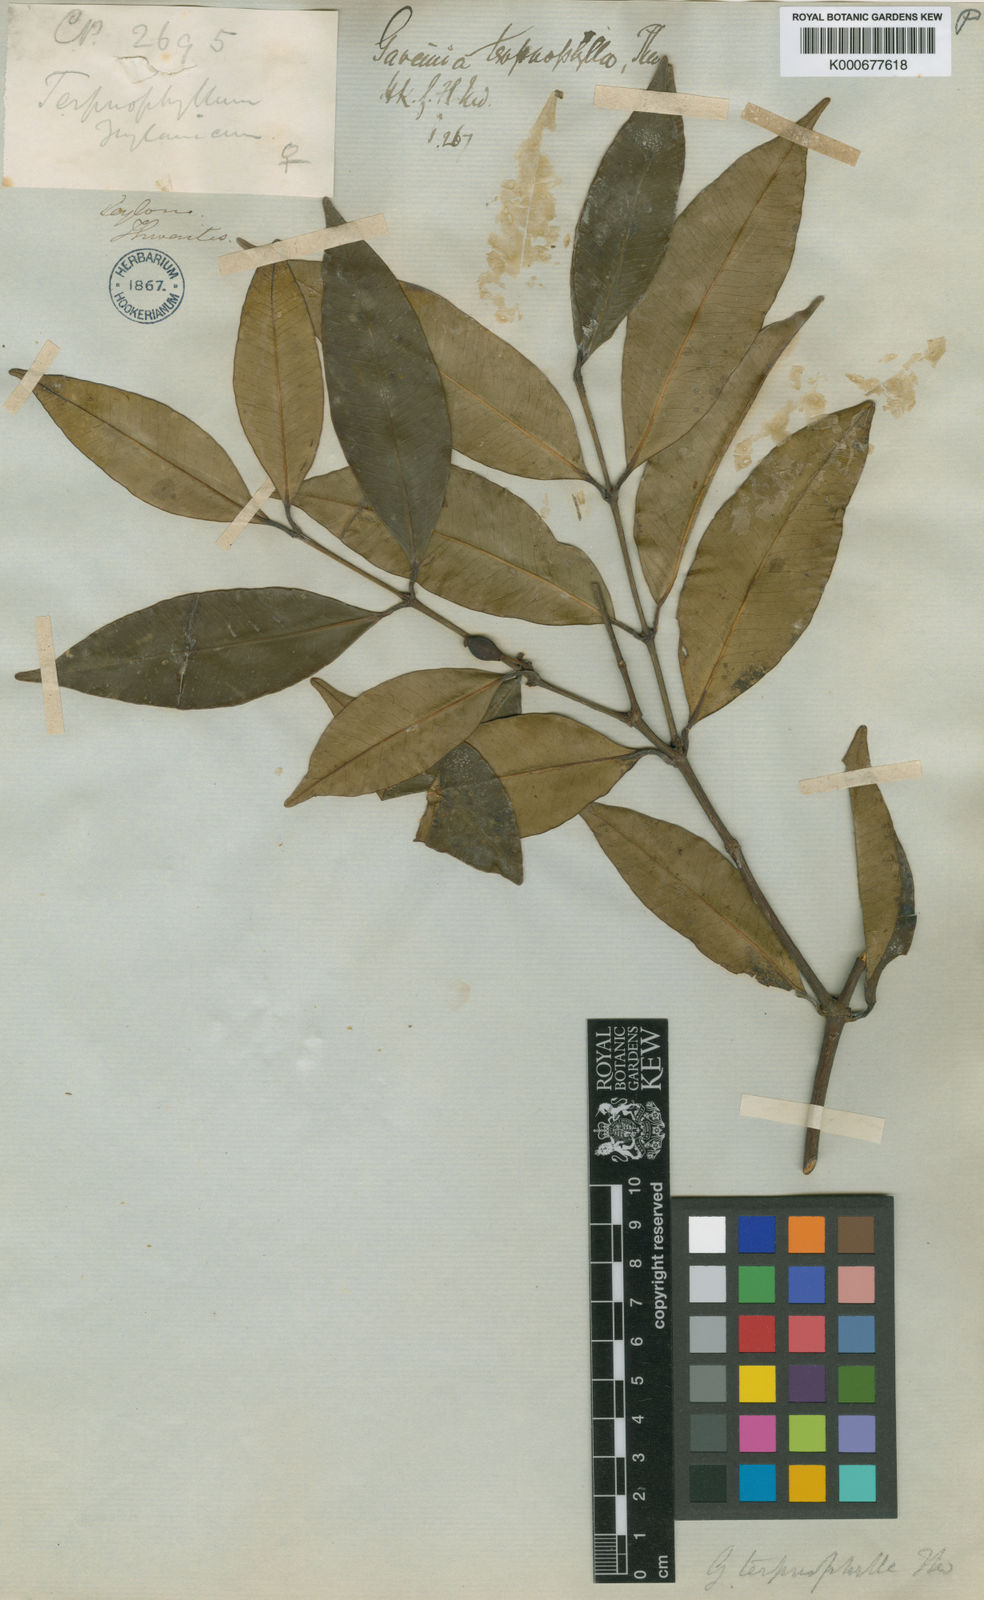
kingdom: Plantae
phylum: Tracheophyta
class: Magnoliopsida
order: Malpighiales
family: Clusiaceae
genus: Garcinia
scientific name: Garcinia terpnophylla
